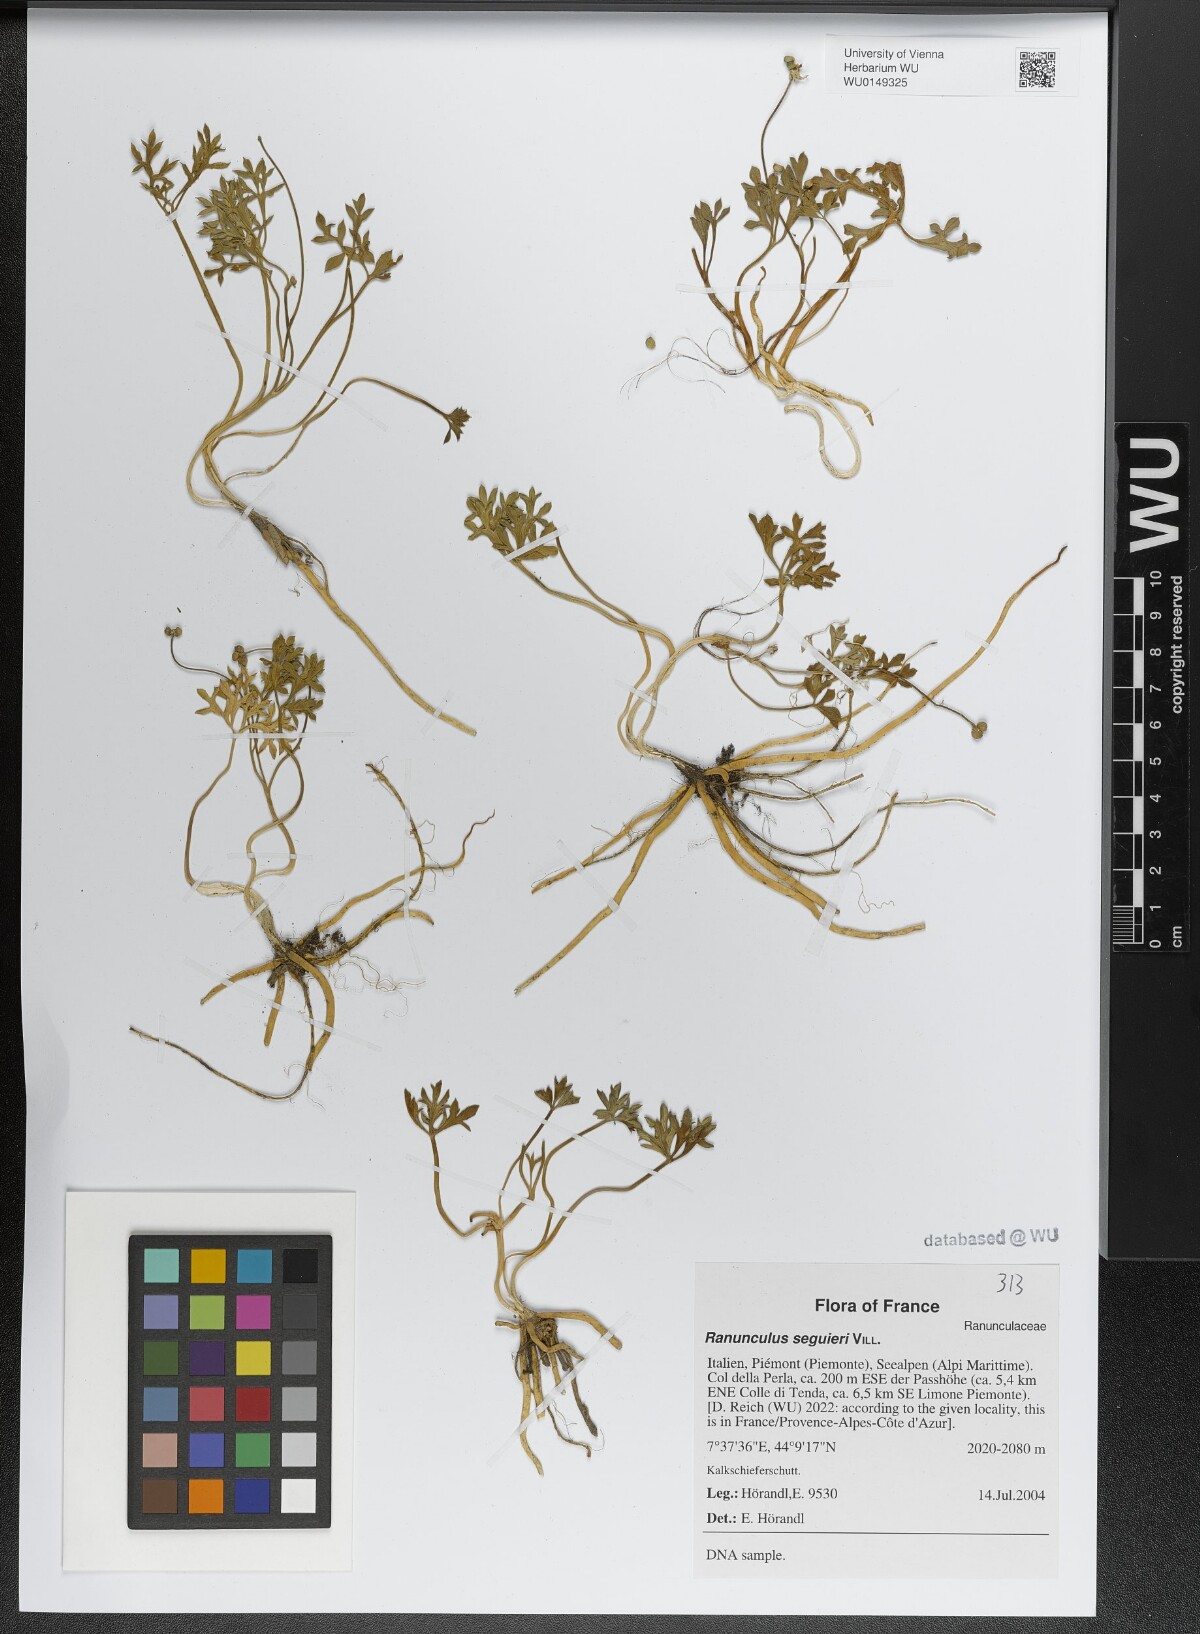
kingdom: Plantae
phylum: Tracheophyta
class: Magnoliopsida
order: Ranunculales
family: Ranunculaceae
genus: Ranunculus
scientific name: Ranunculus seguieri
